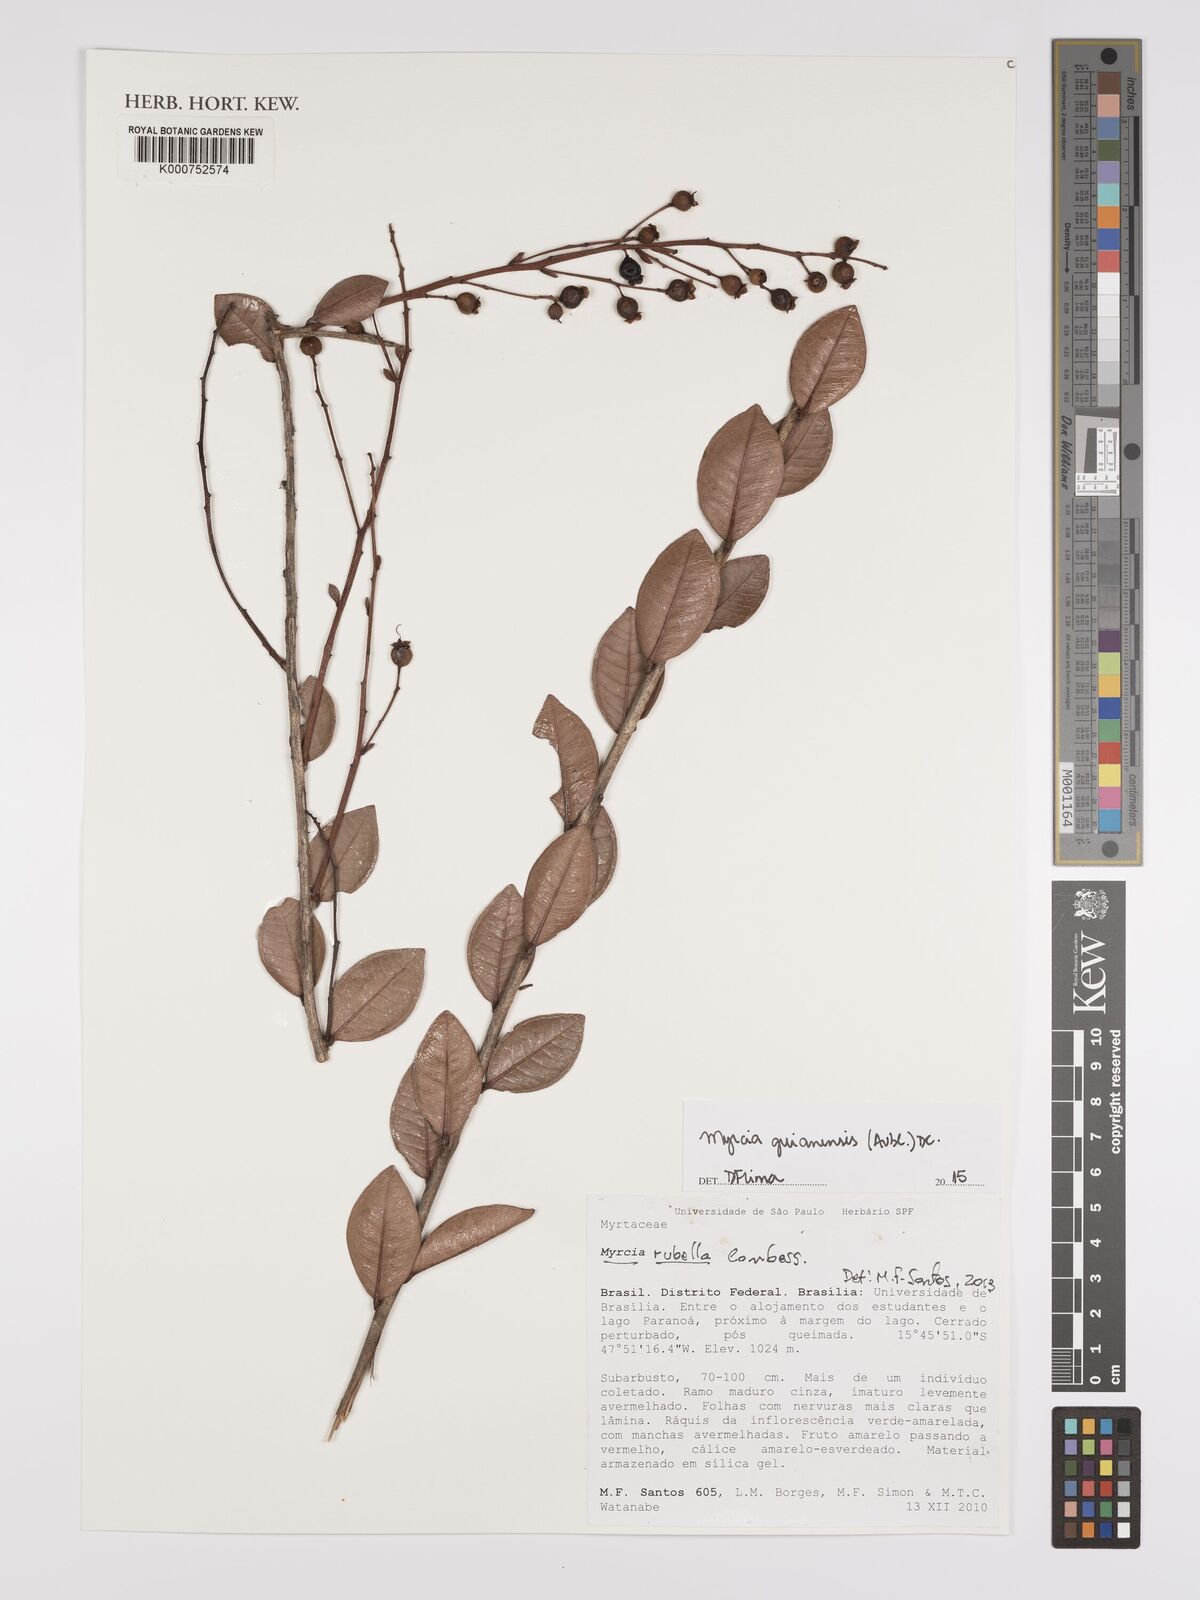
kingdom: Plantae
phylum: Tracheophyta
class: Magnoliopsida
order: Myrtales
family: Myrtaceae
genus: Myrcia
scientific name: Myrcia guianensis
